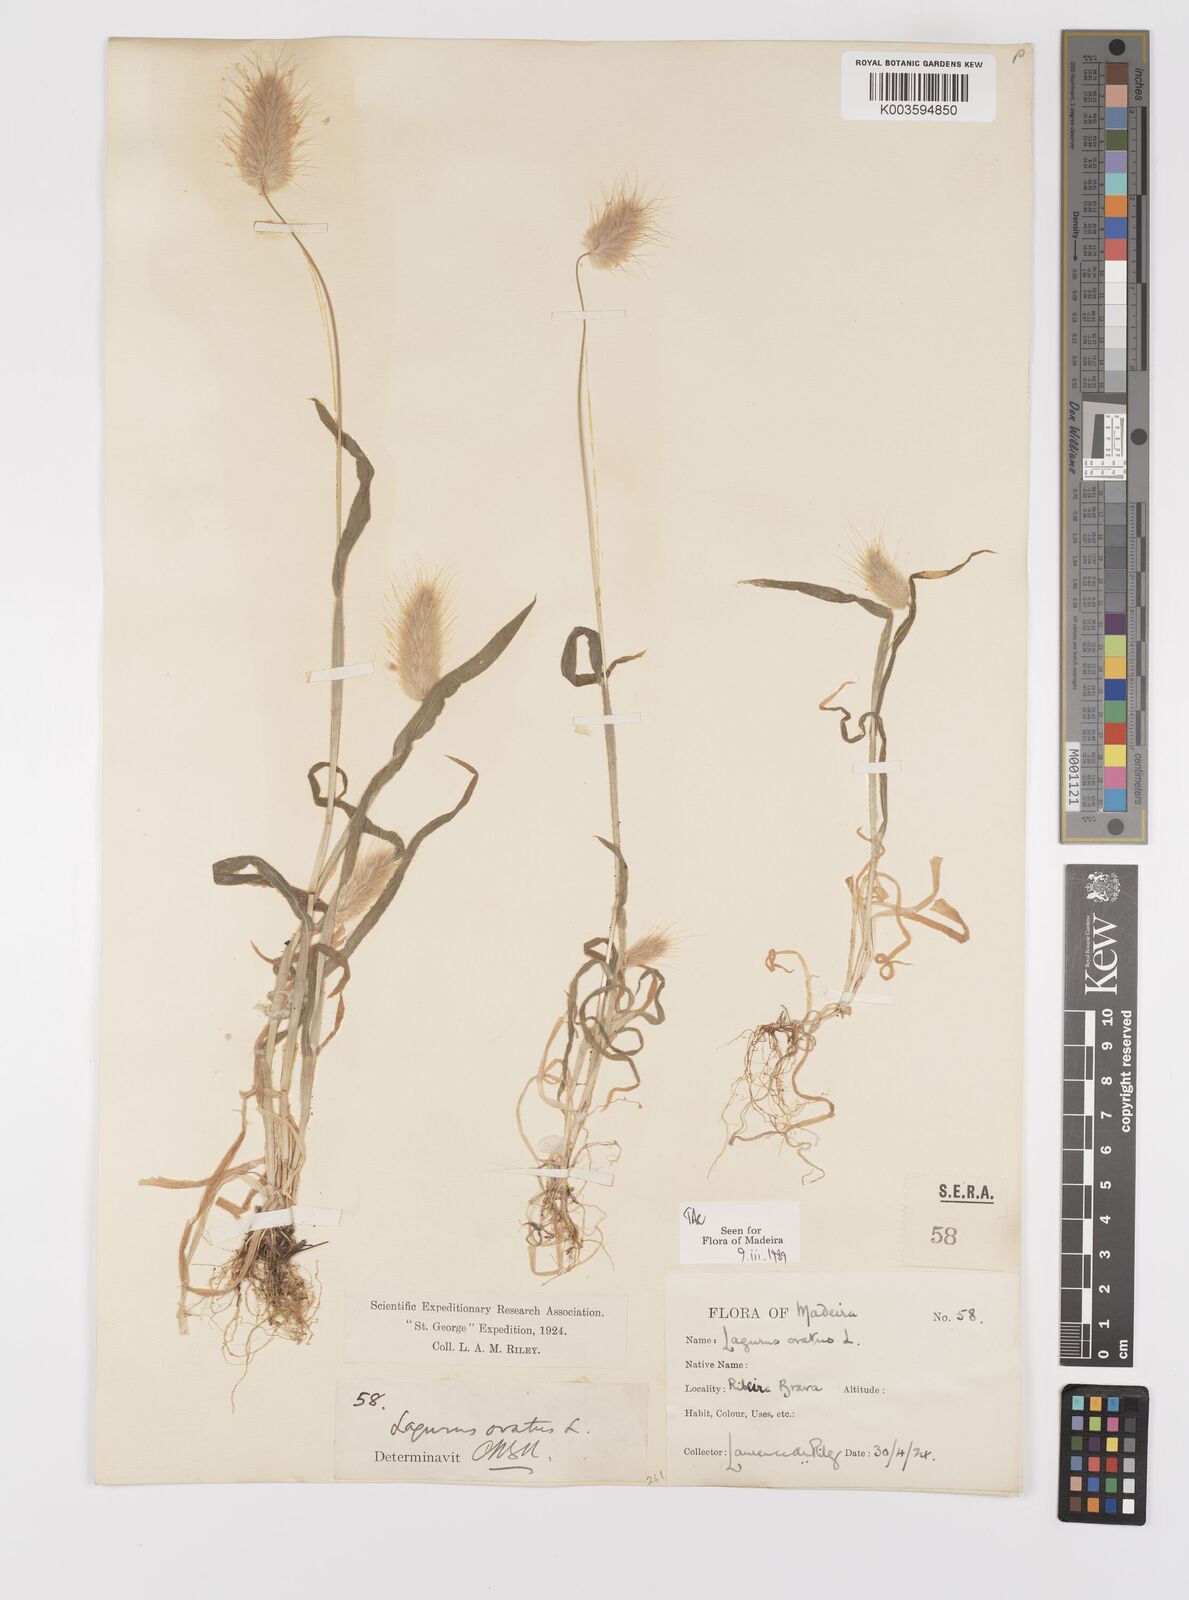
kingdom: Plantae
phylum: Tracheophyta
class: Liliopsida
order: Poales
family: Poaceae
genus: Lagurus
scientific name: Lagurus ovatus
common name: Hare's-tail
